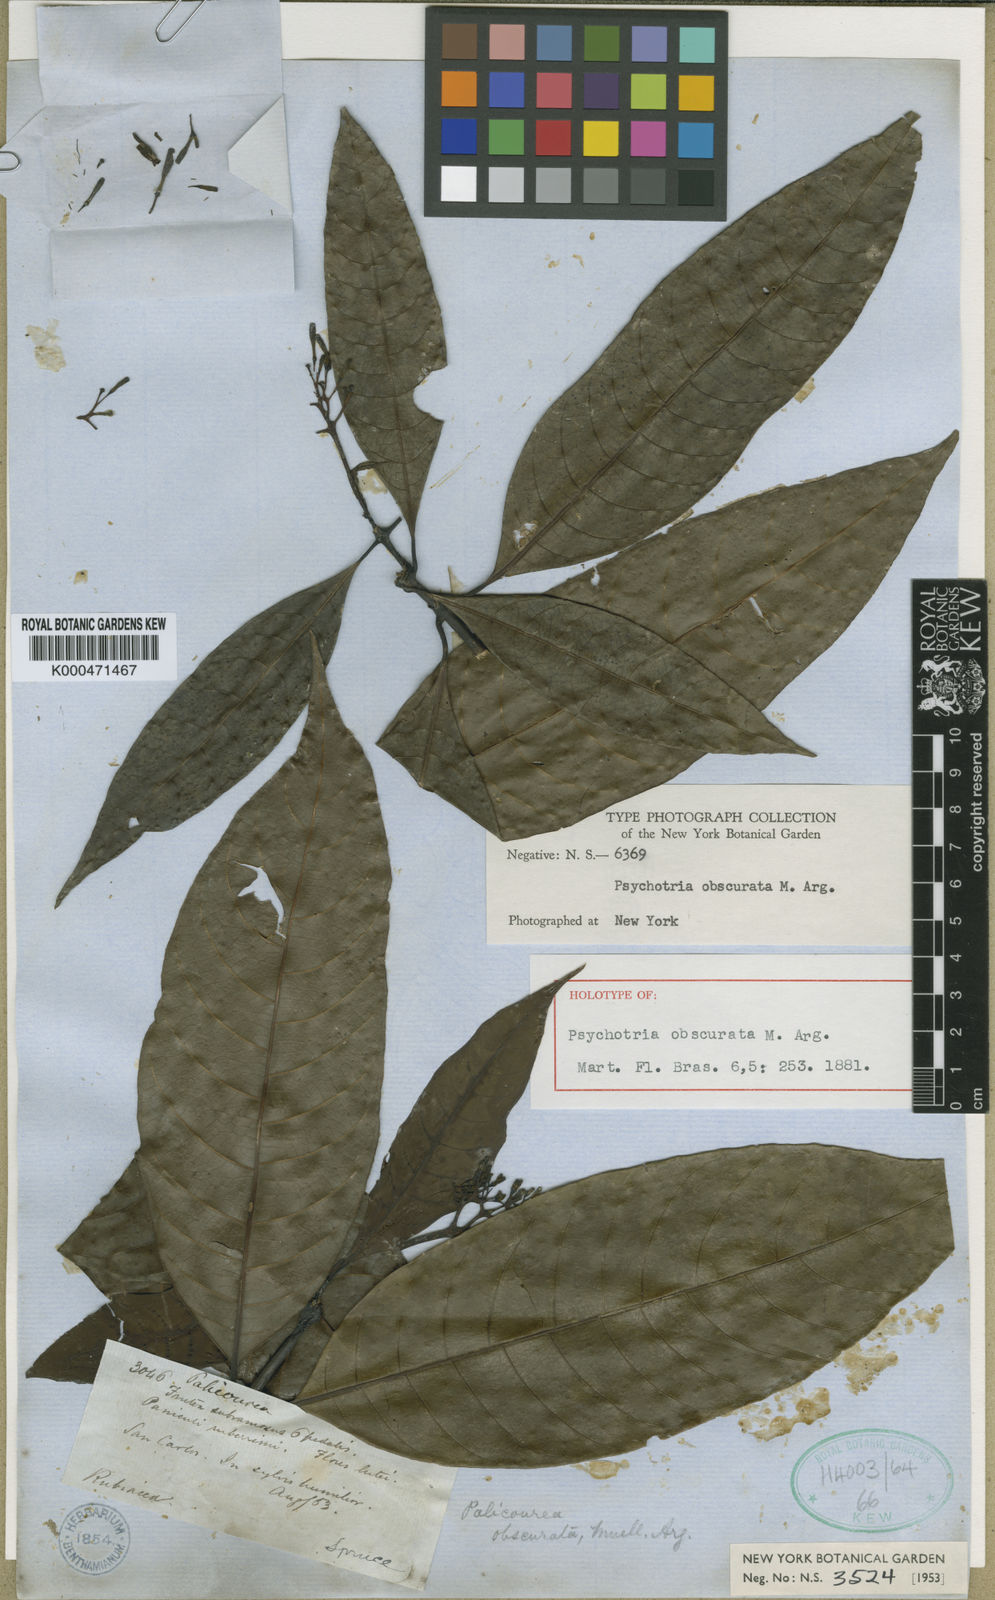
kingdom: Plantae
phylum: Tracheophyta
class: Magnoliopsida
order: Gentianales
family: Rubiaceae
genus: Palicourea
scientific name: Palicourea grandiflora
